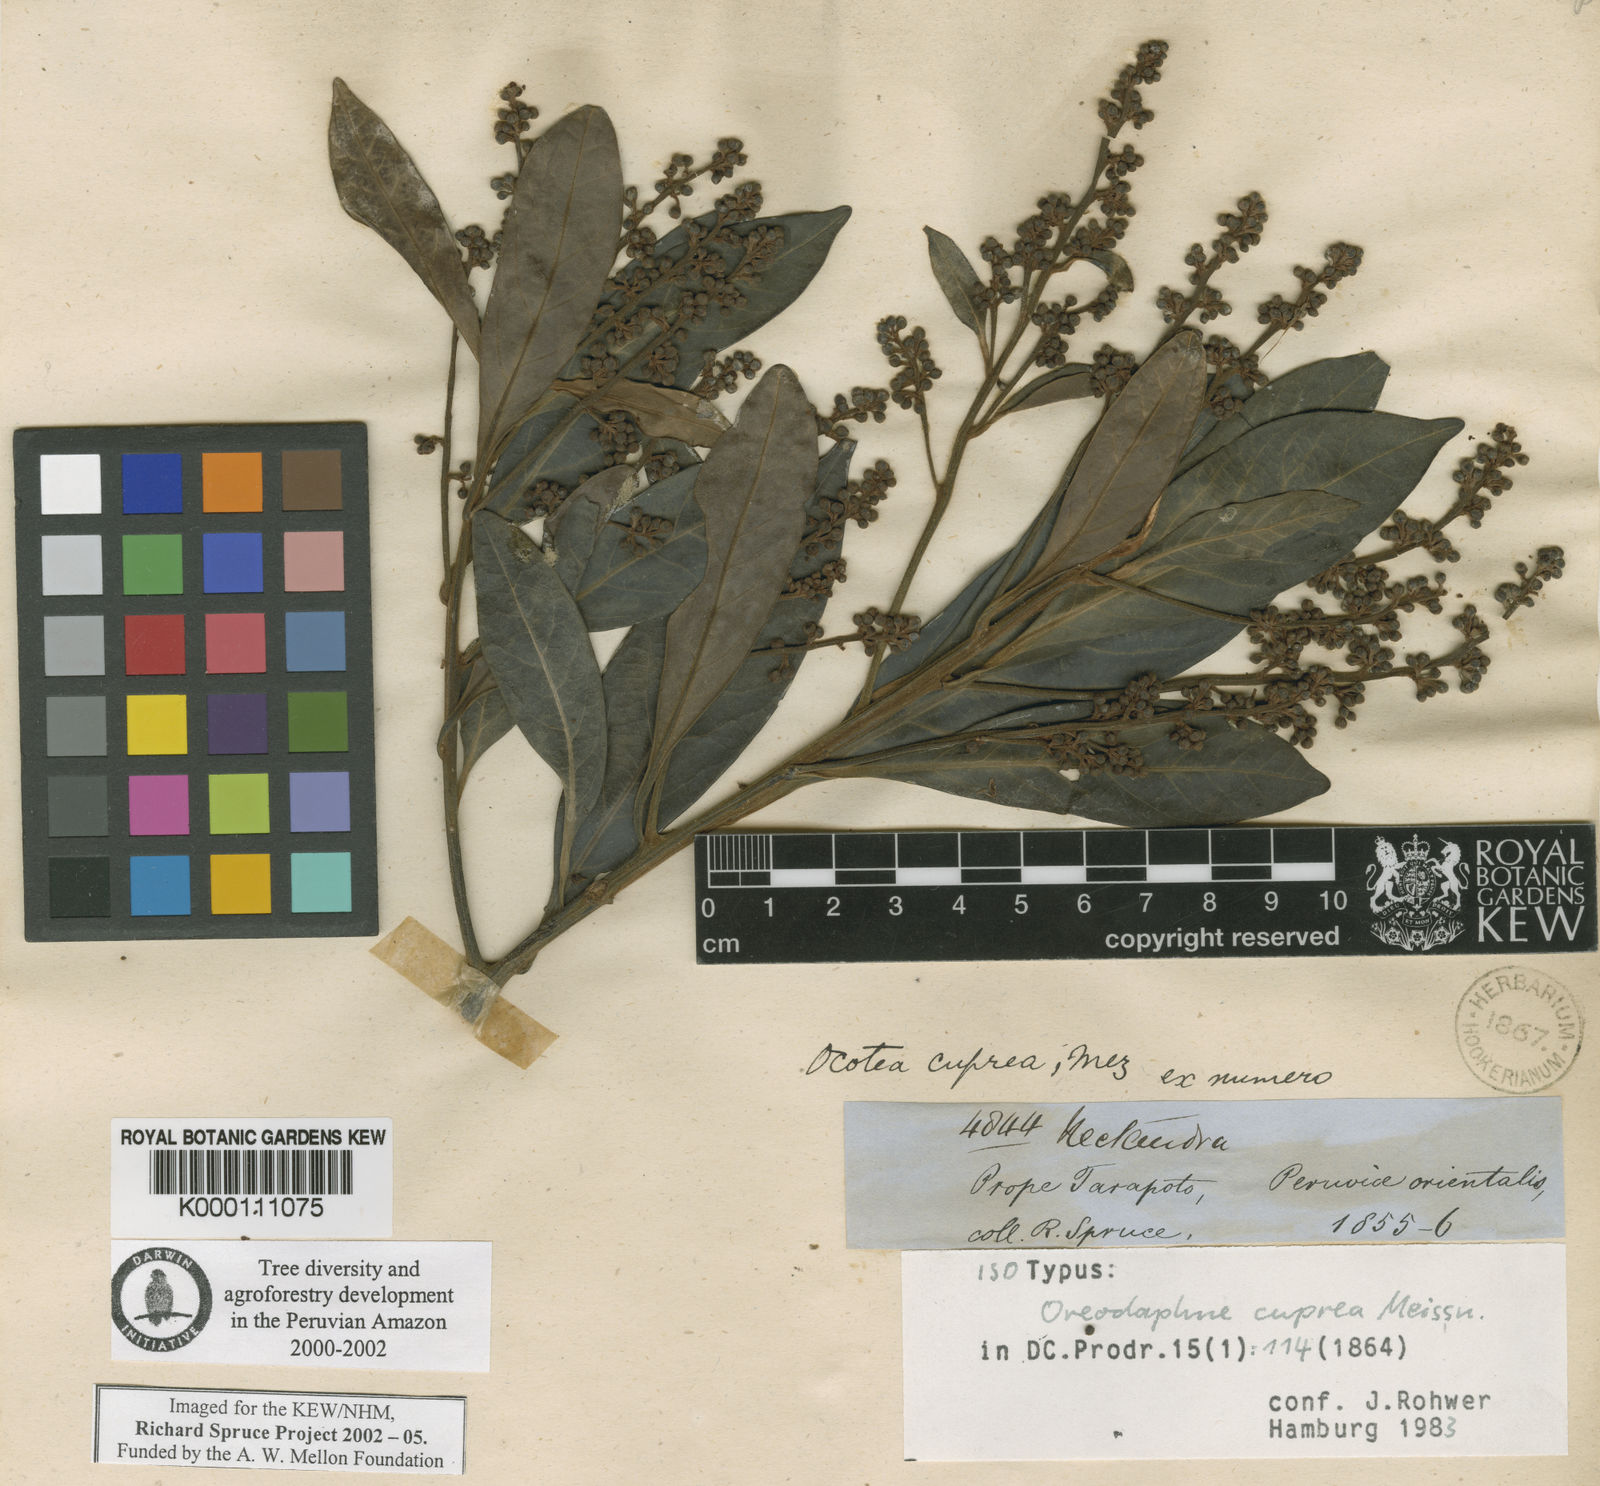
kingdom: Plantae
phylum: Tracheophyta
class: Magnoliopsida
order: Laurales
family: Lauraceae
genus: Ocotea
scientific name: Ocotea oblonga
